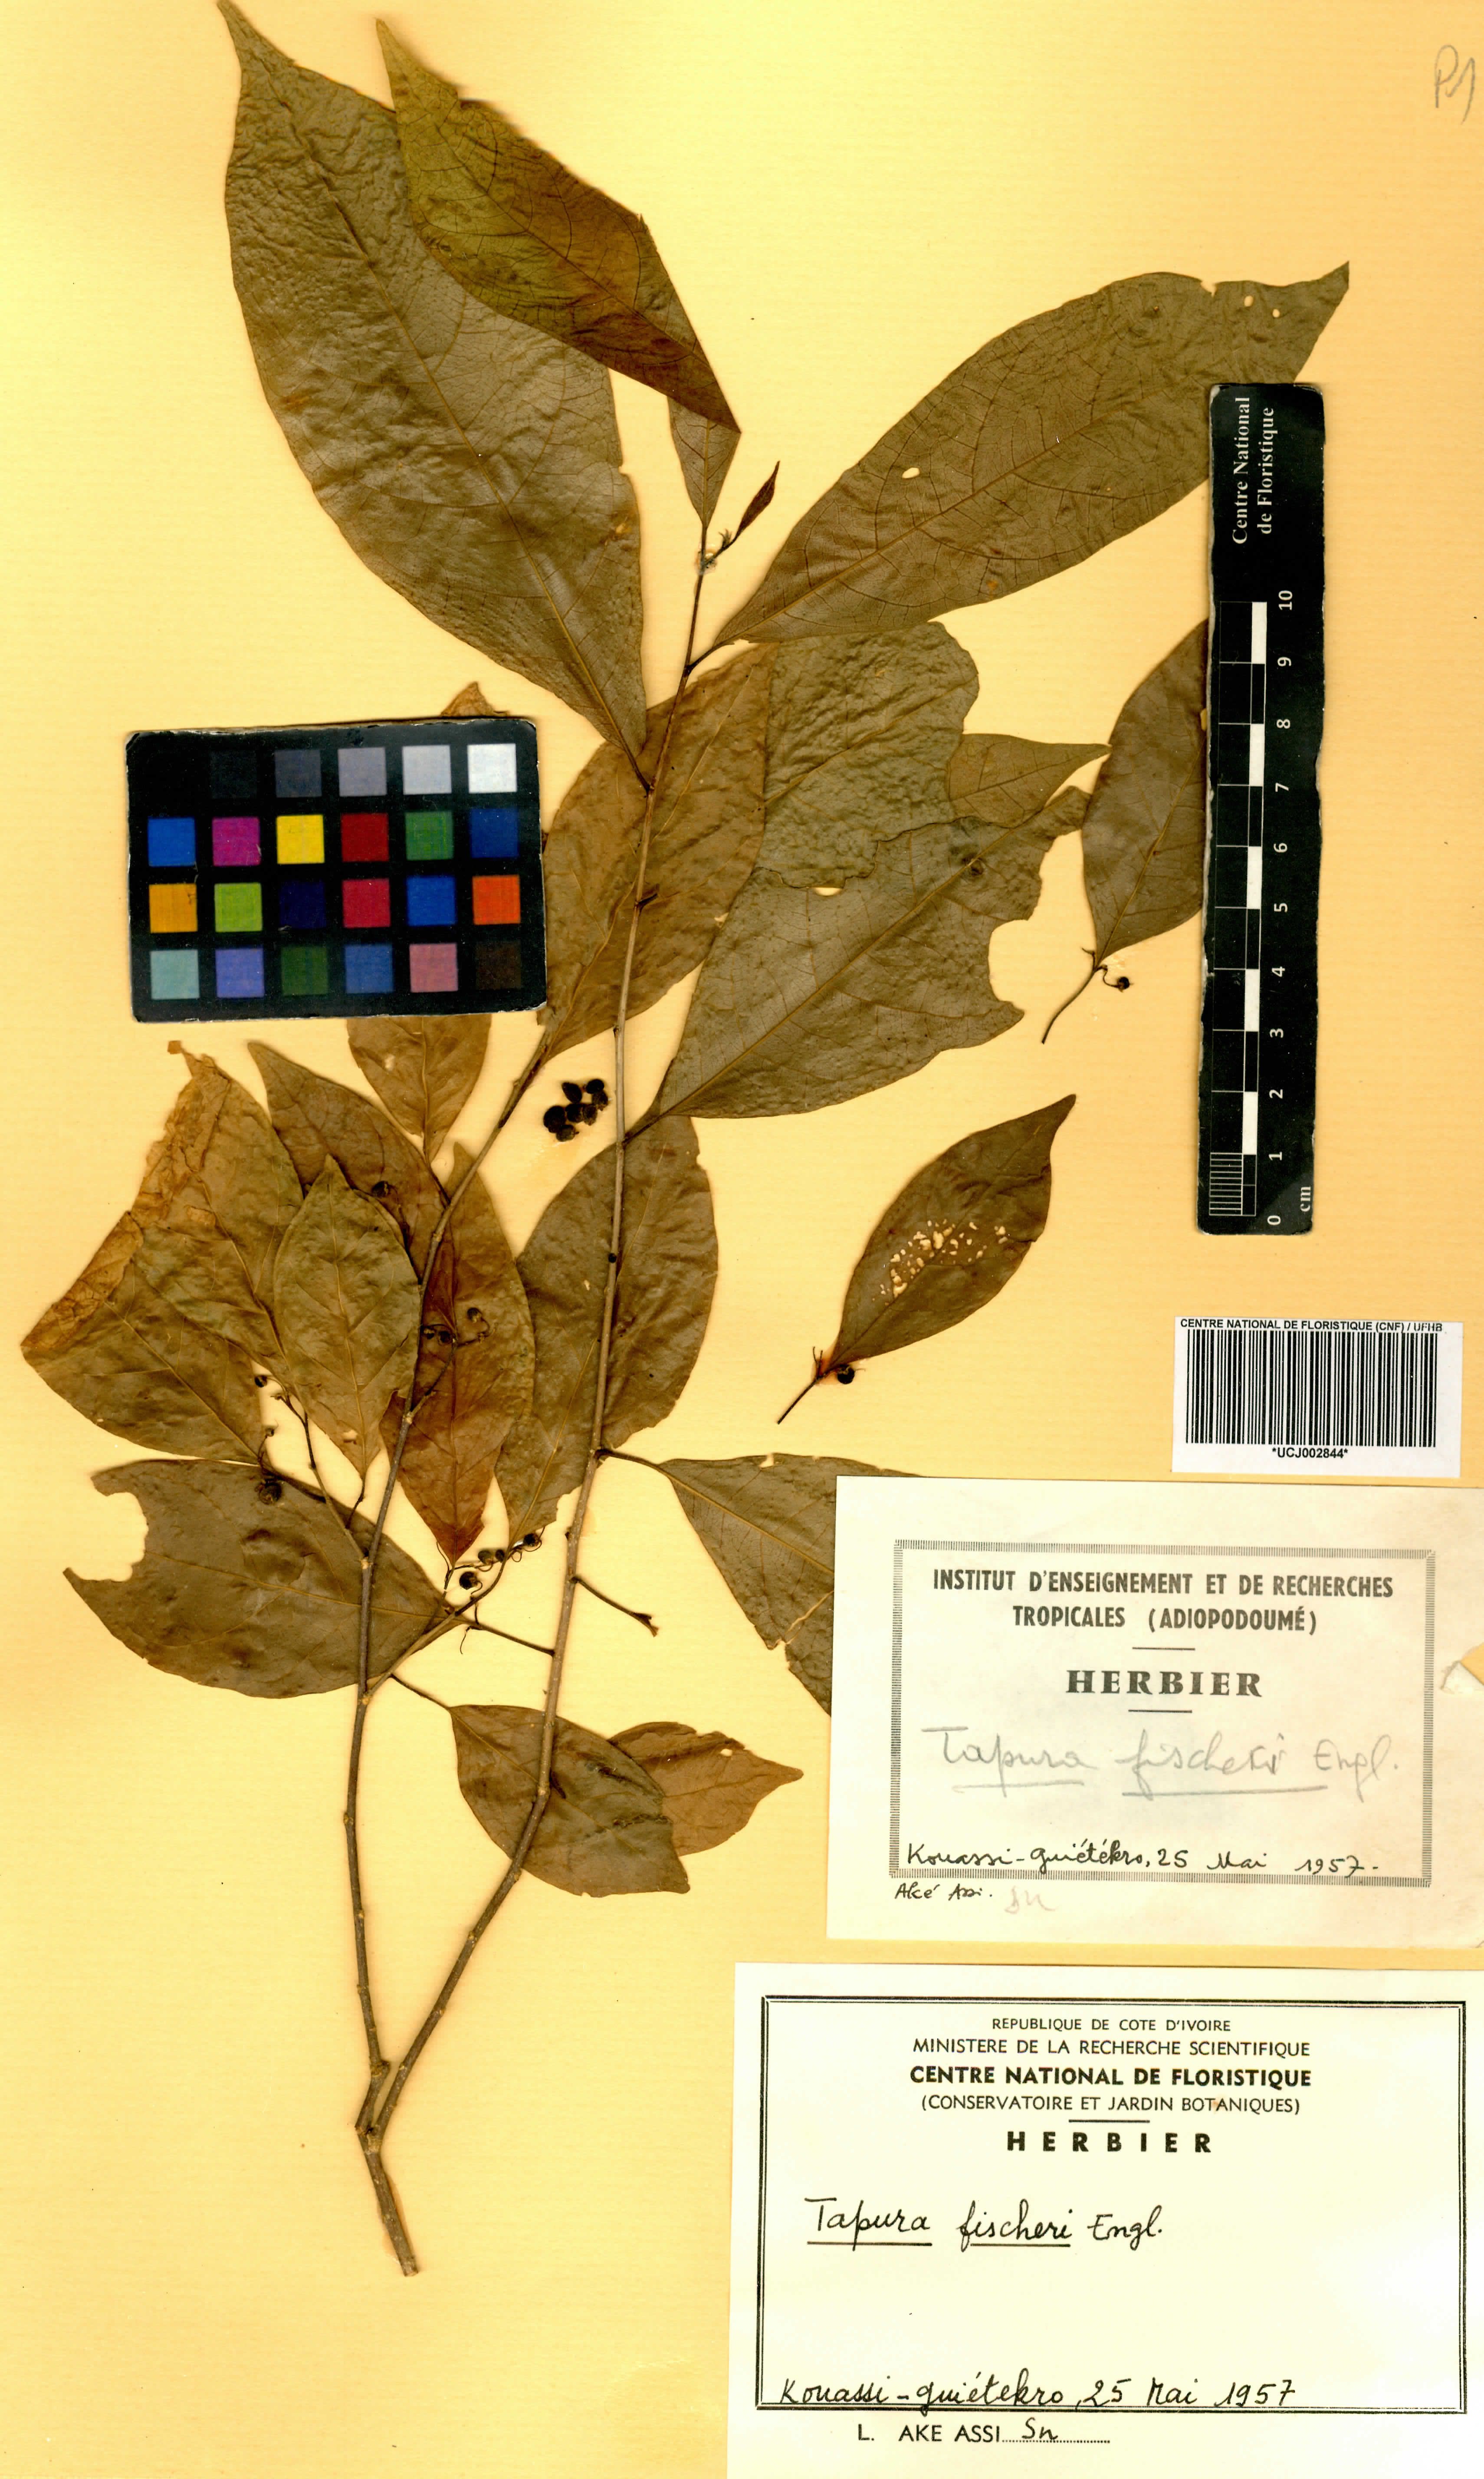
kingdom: Plantae
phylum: Tracheophyta
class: Magnoliopsida
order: Malpighiales
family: Dichapetalaceae
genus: Tapura
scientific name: Tapura fischeri
